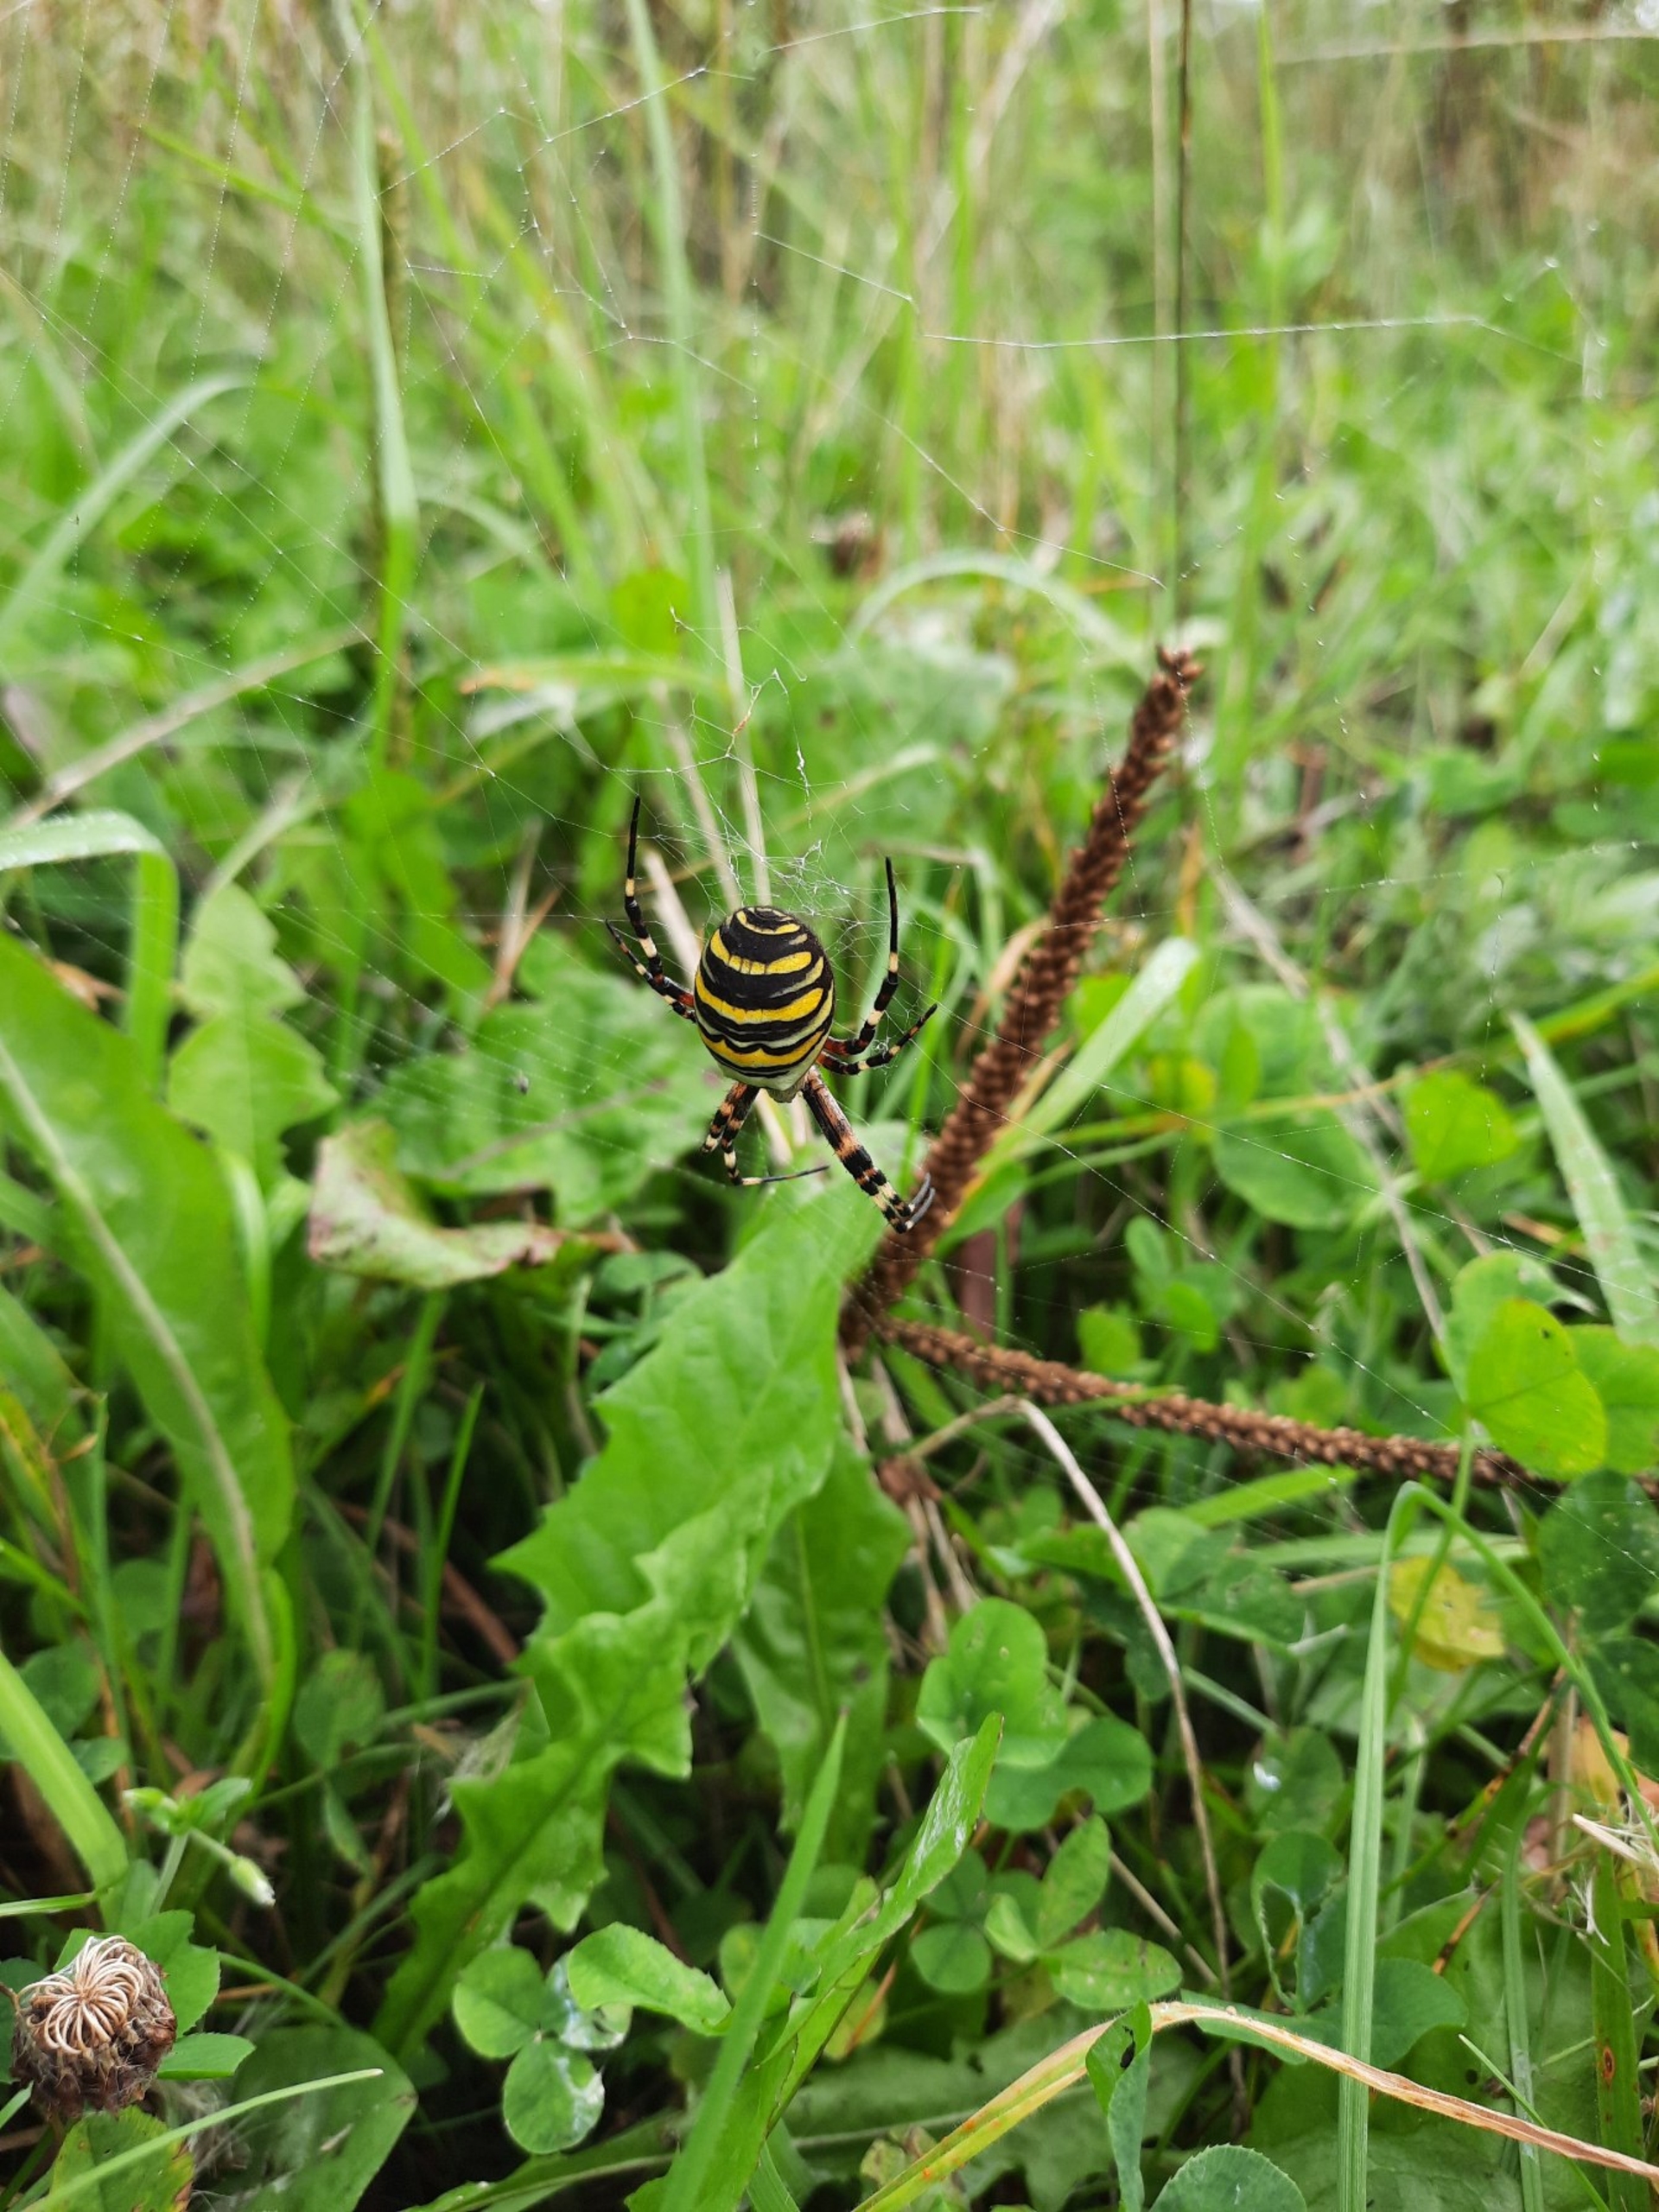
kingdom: Animalia
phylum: Arthropoda
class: Arachnida
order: Araneae
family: Araneidae
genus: Argiope
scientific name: Argiope bruennichi
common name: Hvepseedderkop
